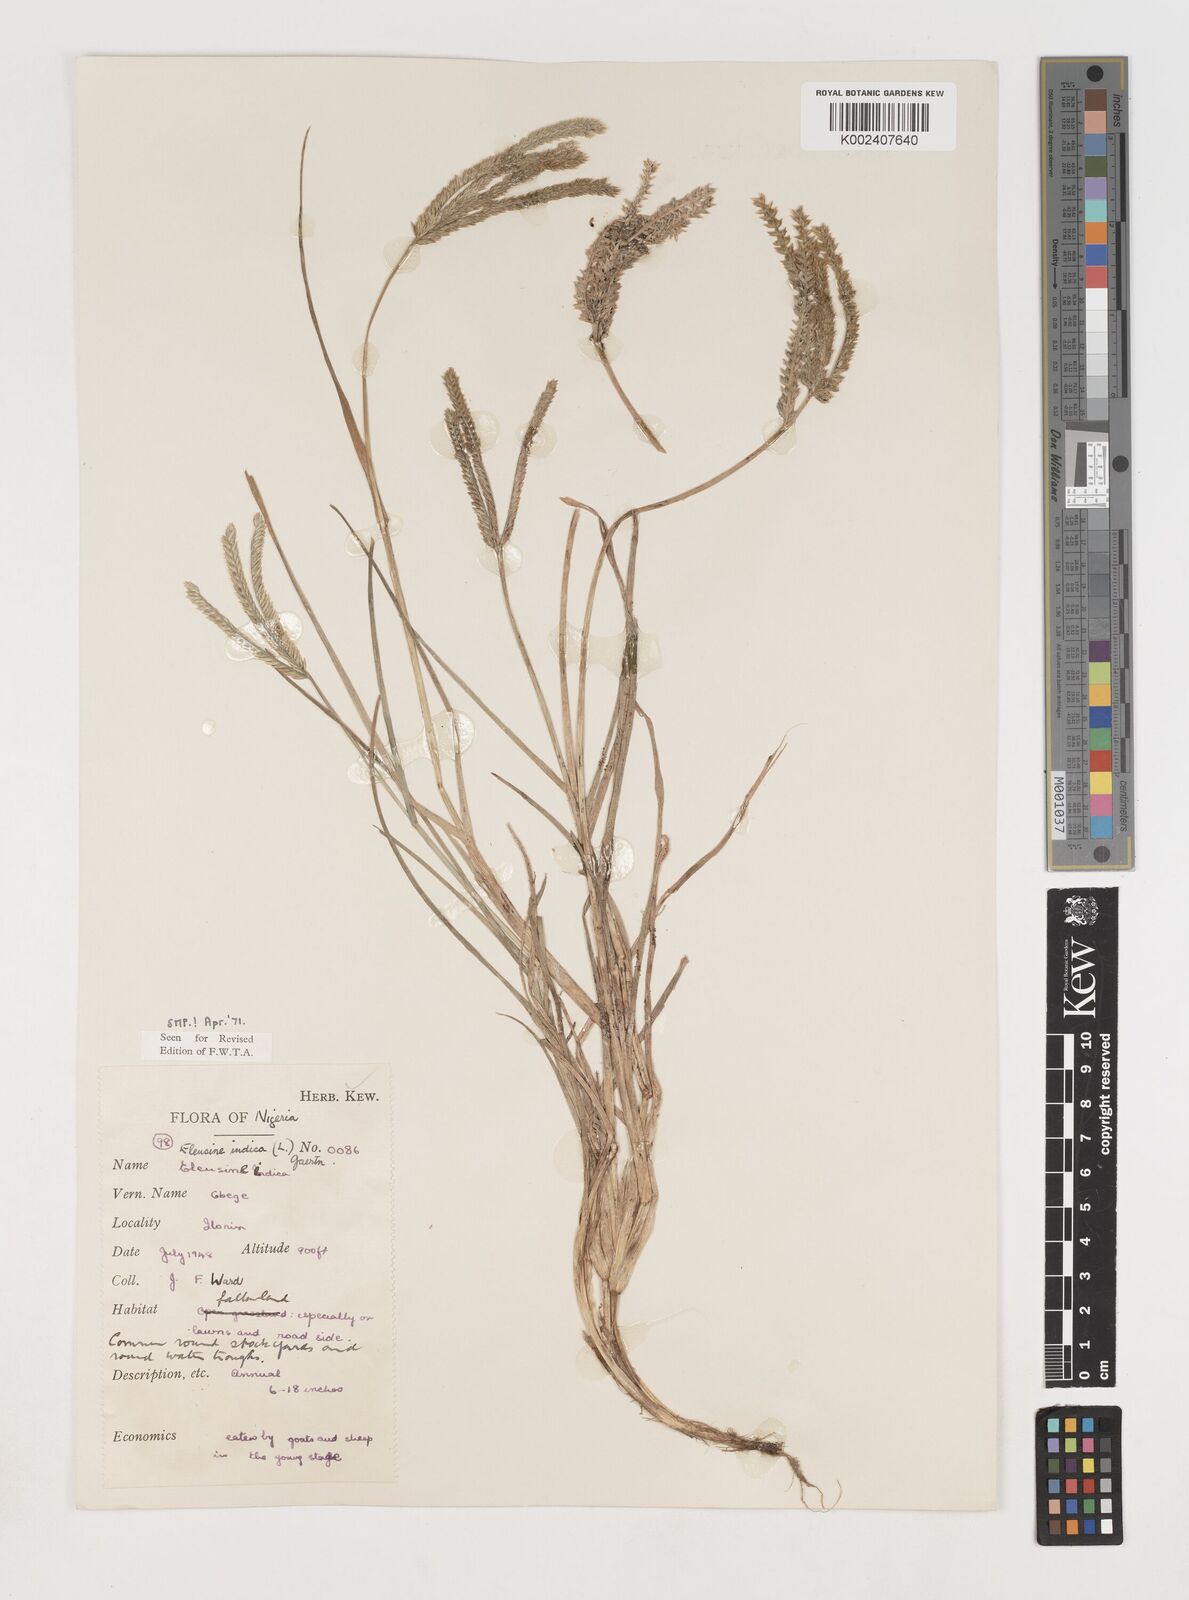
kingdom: Plantae
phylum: Tracheophyta
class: Liliopsida
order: Poales
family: Poaceae
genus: Eleusine
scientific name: Eleusine indica
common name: Yard-grass
